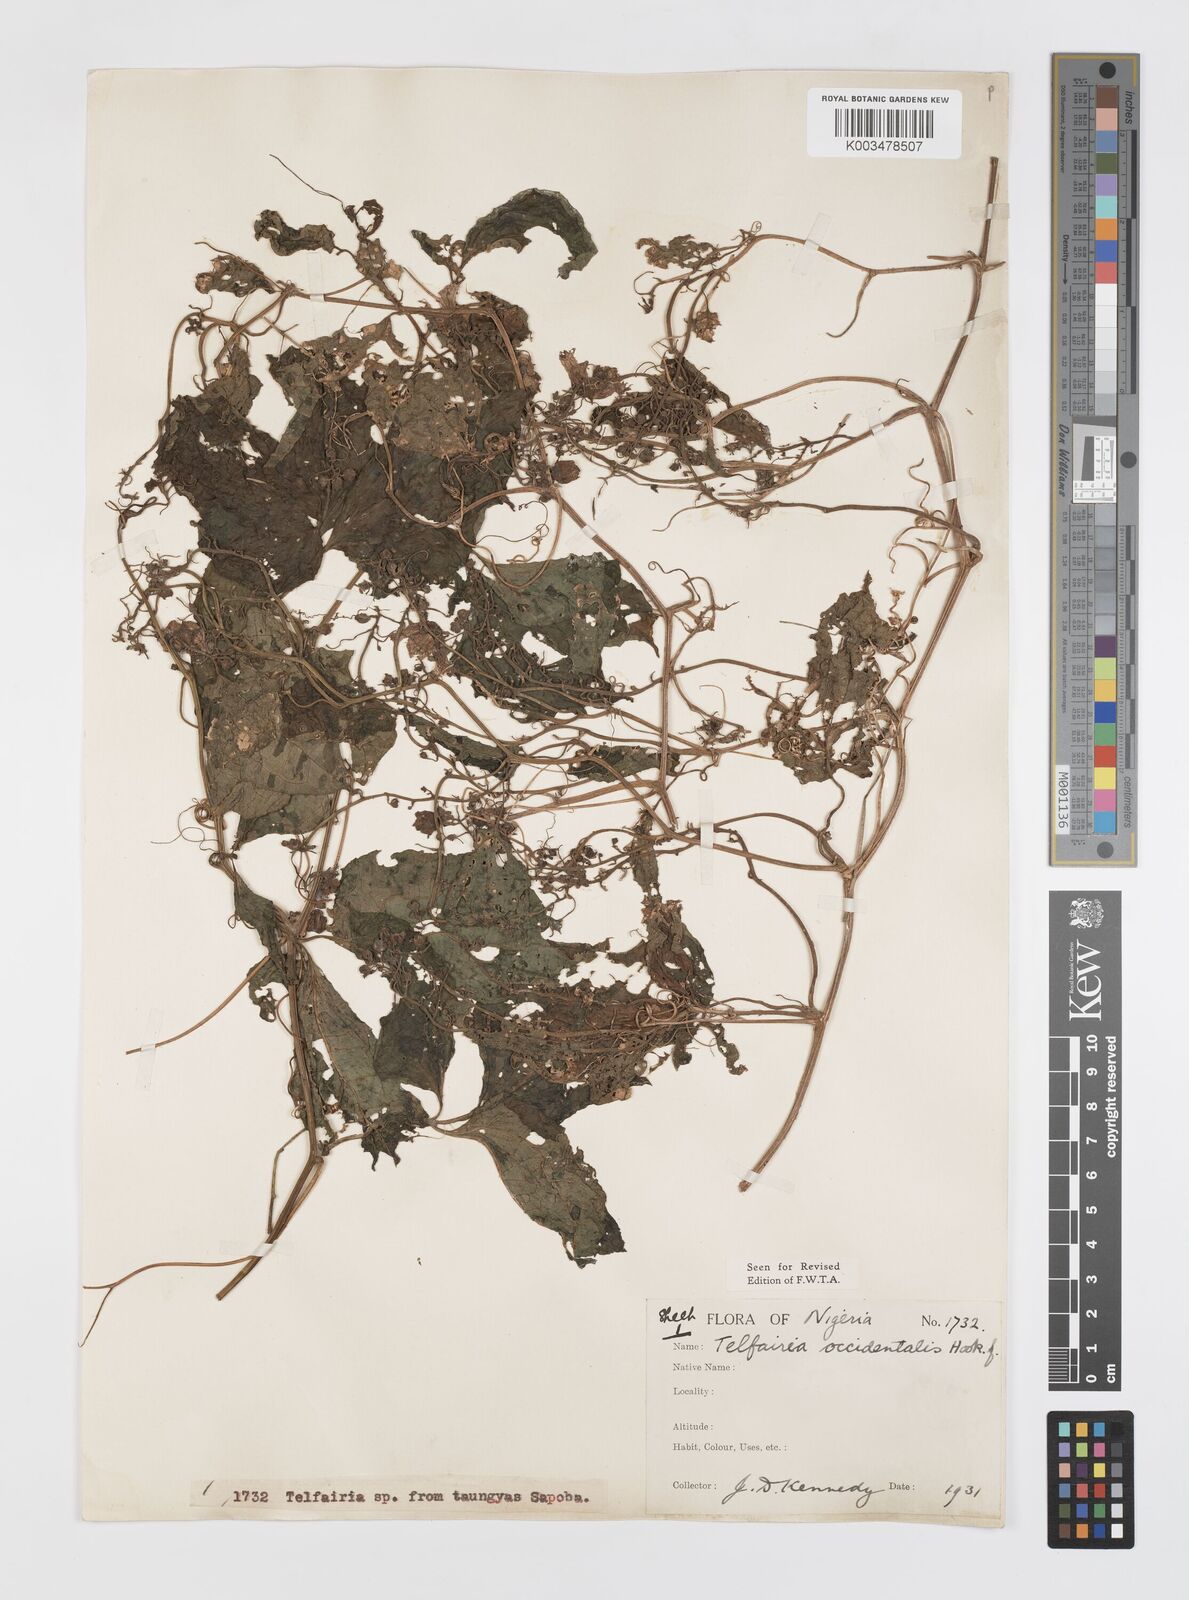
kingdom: Plantae
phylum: Tracheophyta
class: Magnoliopsida
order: Cucurbitales
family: Cucurbitaceae
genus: Telfairia
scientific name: Telfairia occidentalis
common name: Oysternut
